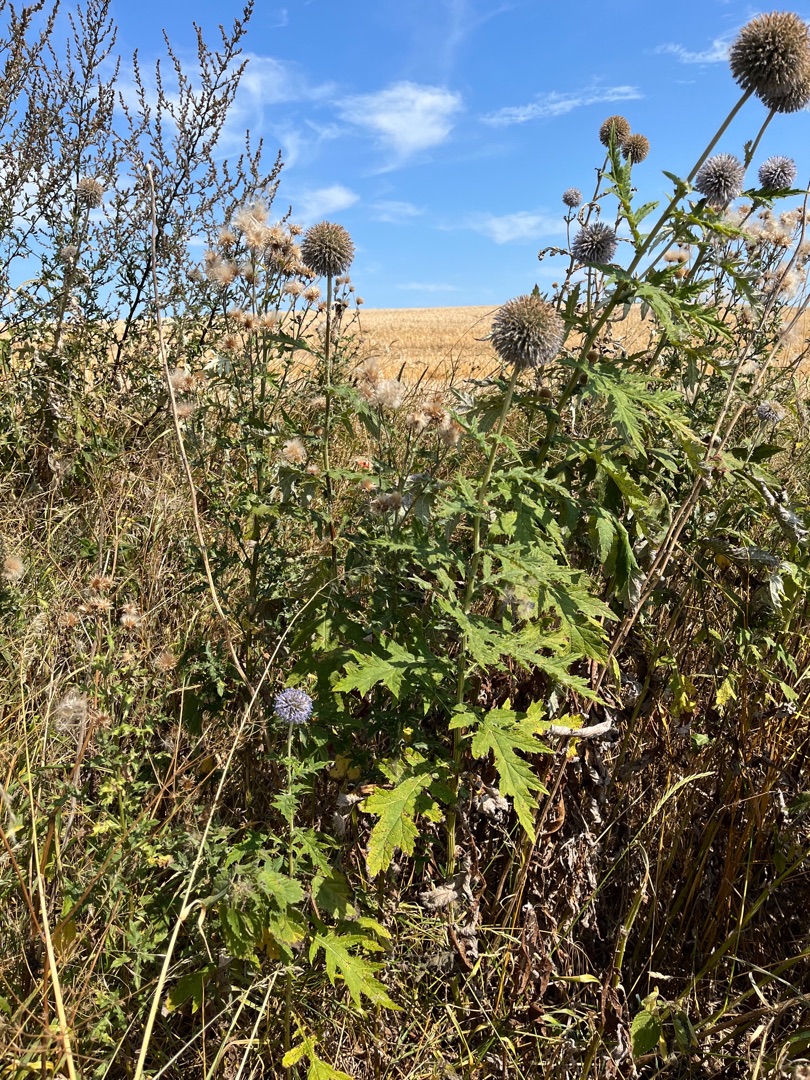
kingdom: Plantae
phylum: Tracheophyta
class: Magnoliopsida
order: Asterales
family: Asteraceae
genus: Echinops
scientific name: Echinops bannaticus
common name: Blå tidselkugle
